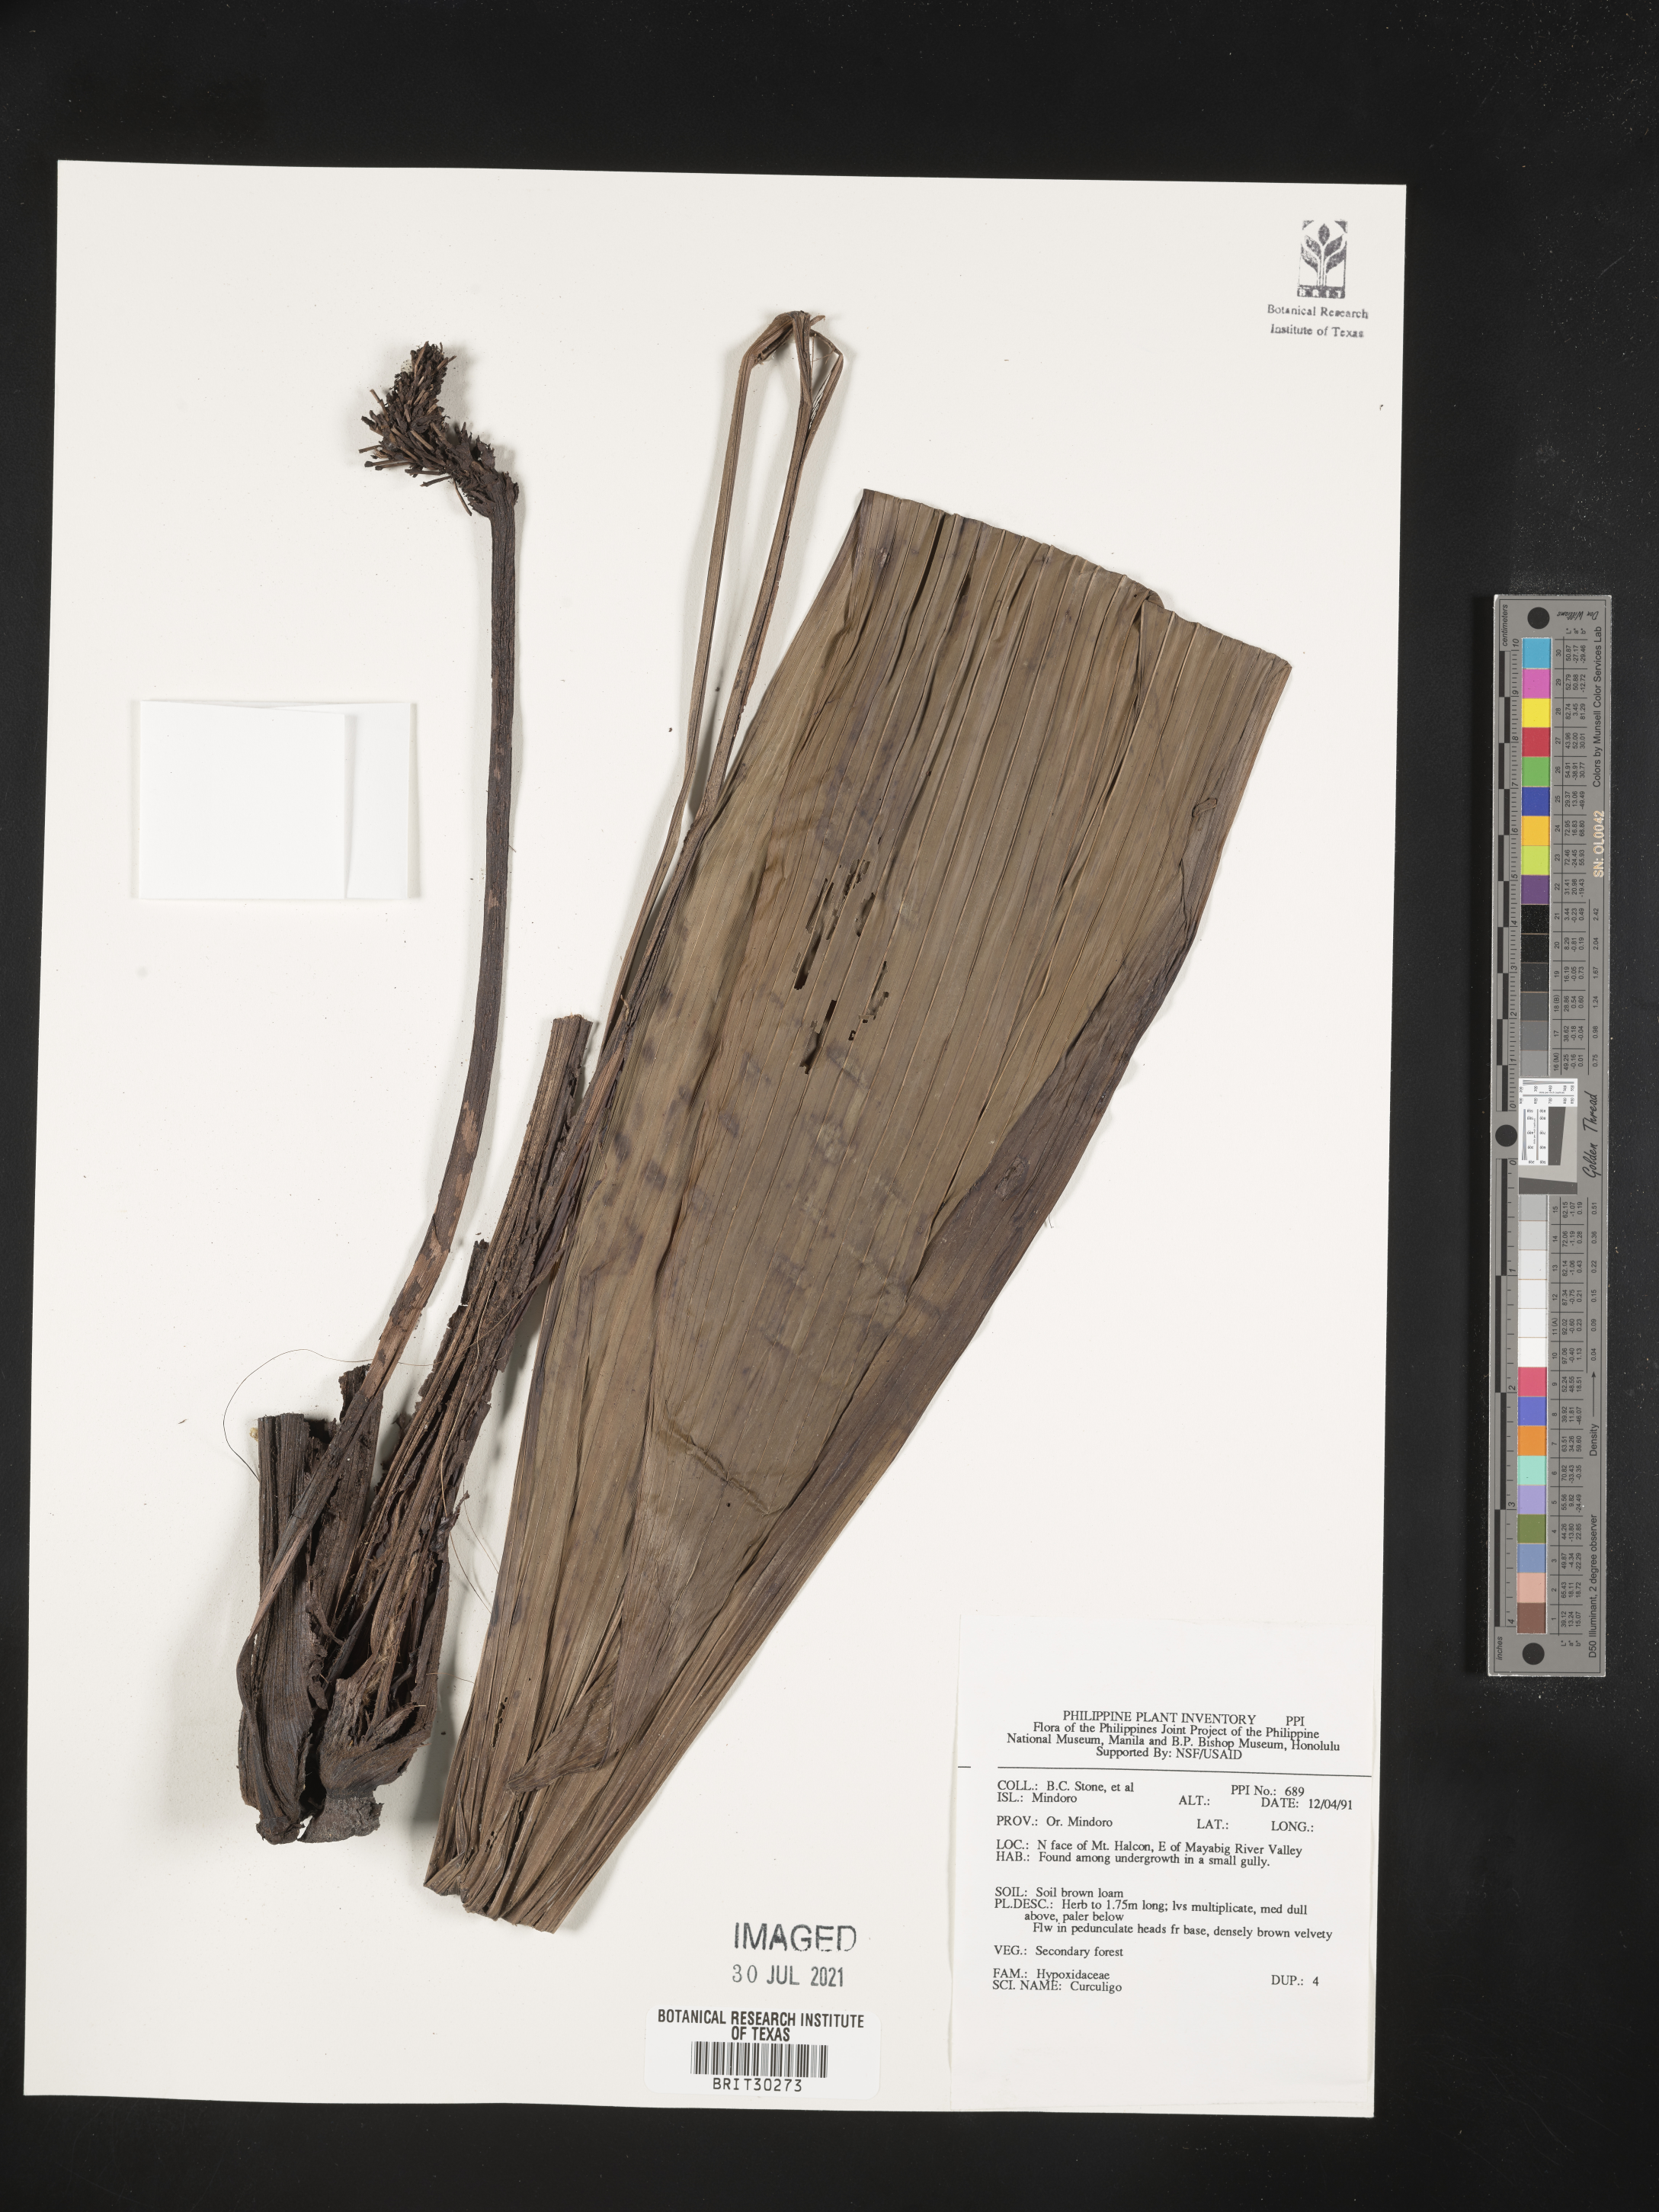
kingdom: Plantae
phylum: Tracheophyta
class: Liliopsida
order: Asparagales
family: Hypoxidaceae
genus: Curculigo
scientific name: Curculigo
